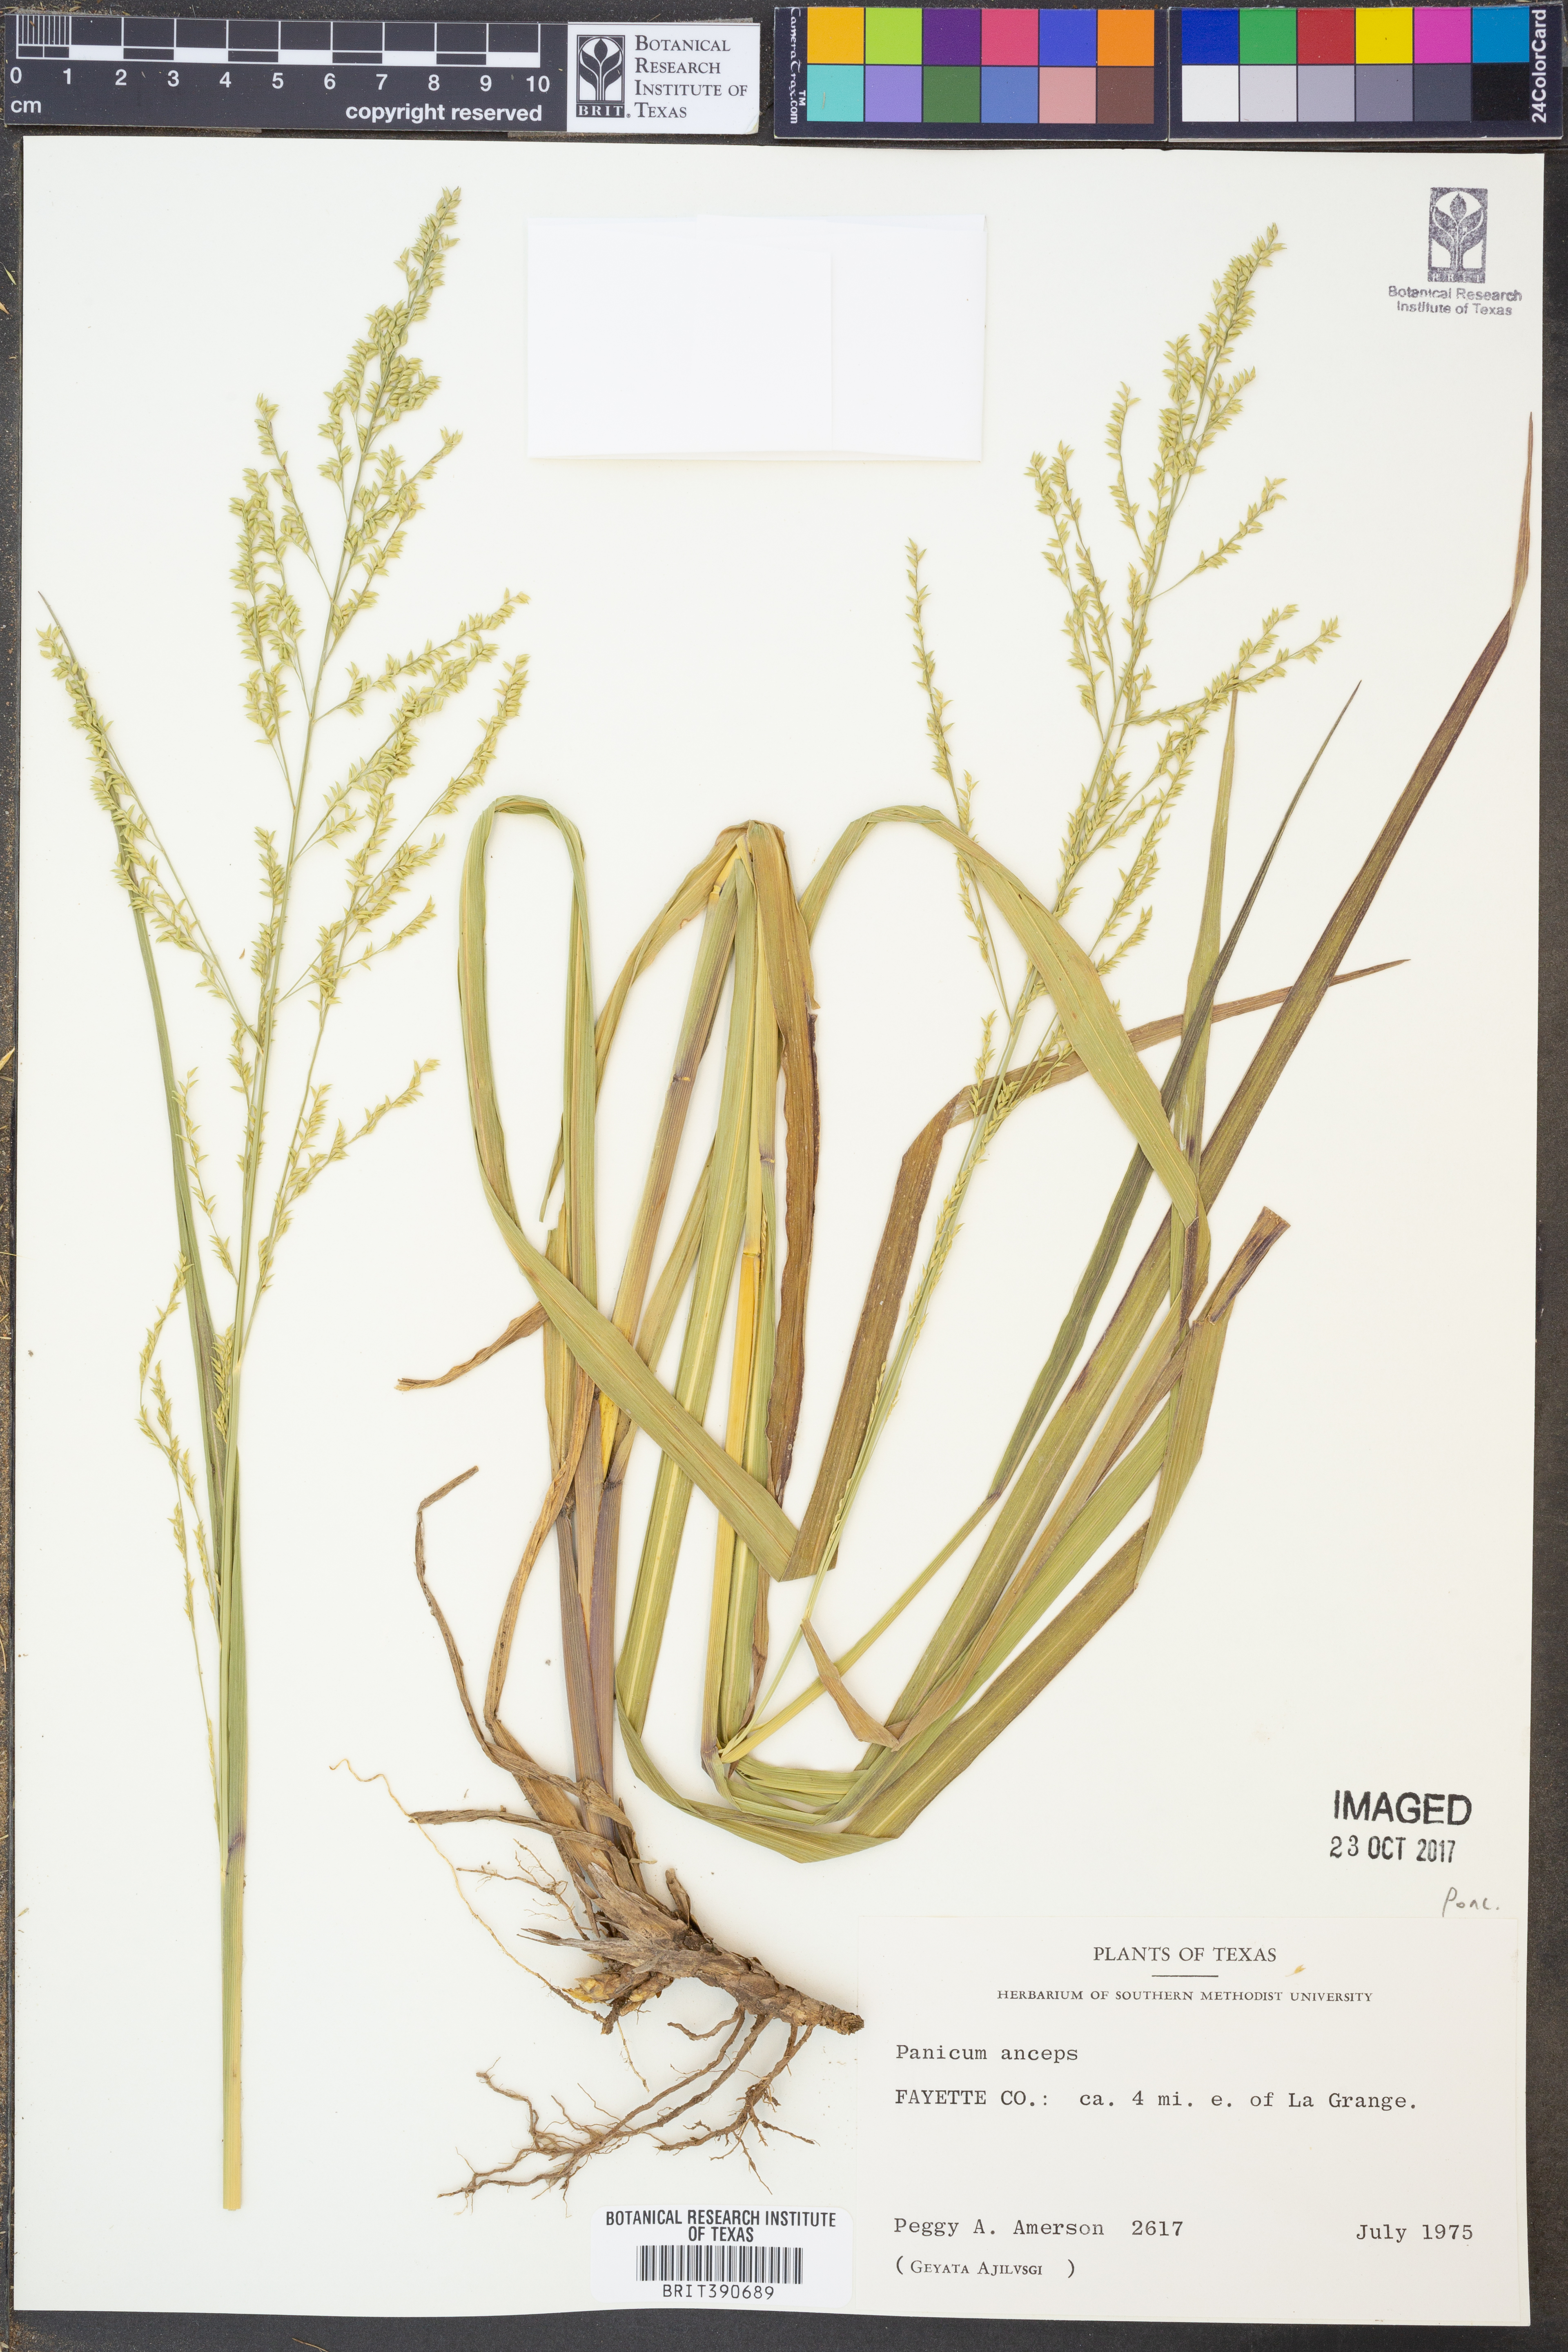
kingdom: Plantae
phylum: Tracheophyta
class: Liliopsida
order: Poales
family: Poaceae
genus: Coleataenia
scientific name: Coleataenia anceps
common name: Beaked panic grass
